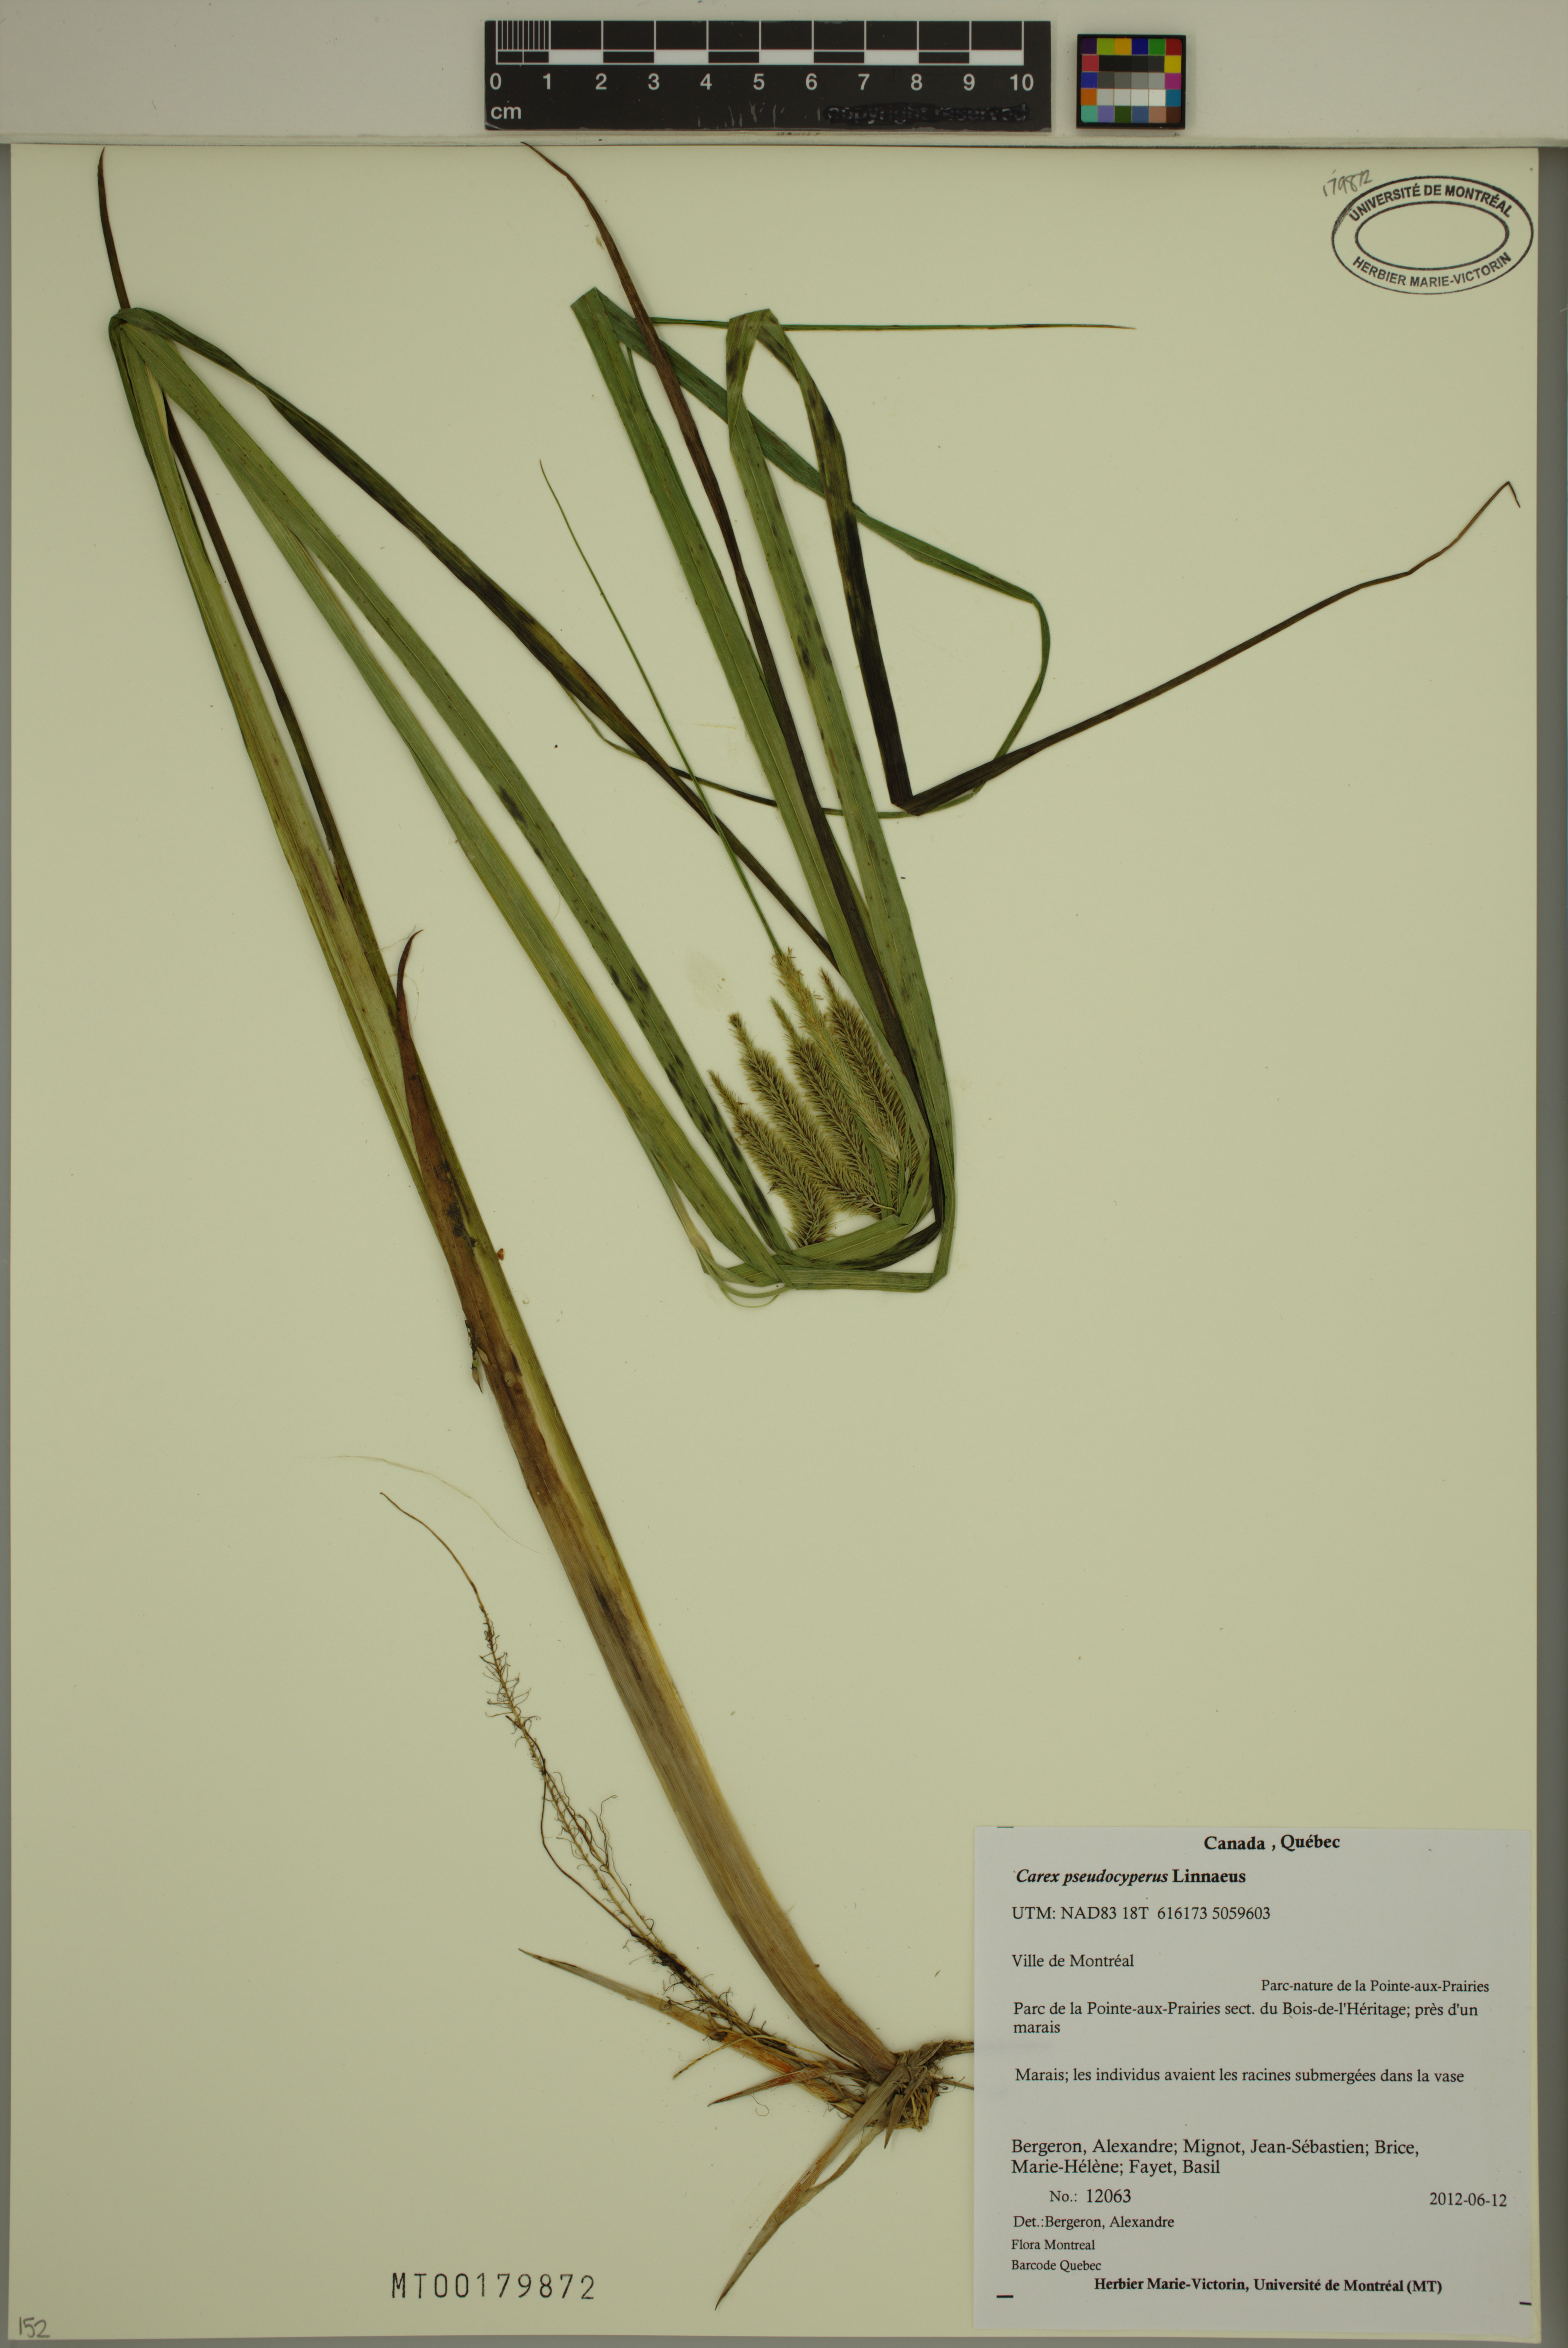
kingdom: Plantae
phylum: Tracheophyta
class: Liliopsida
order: Poales
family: Cyperaceae
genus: Carex
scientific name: Carex pseudocyperus
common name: Cyperus sedge
